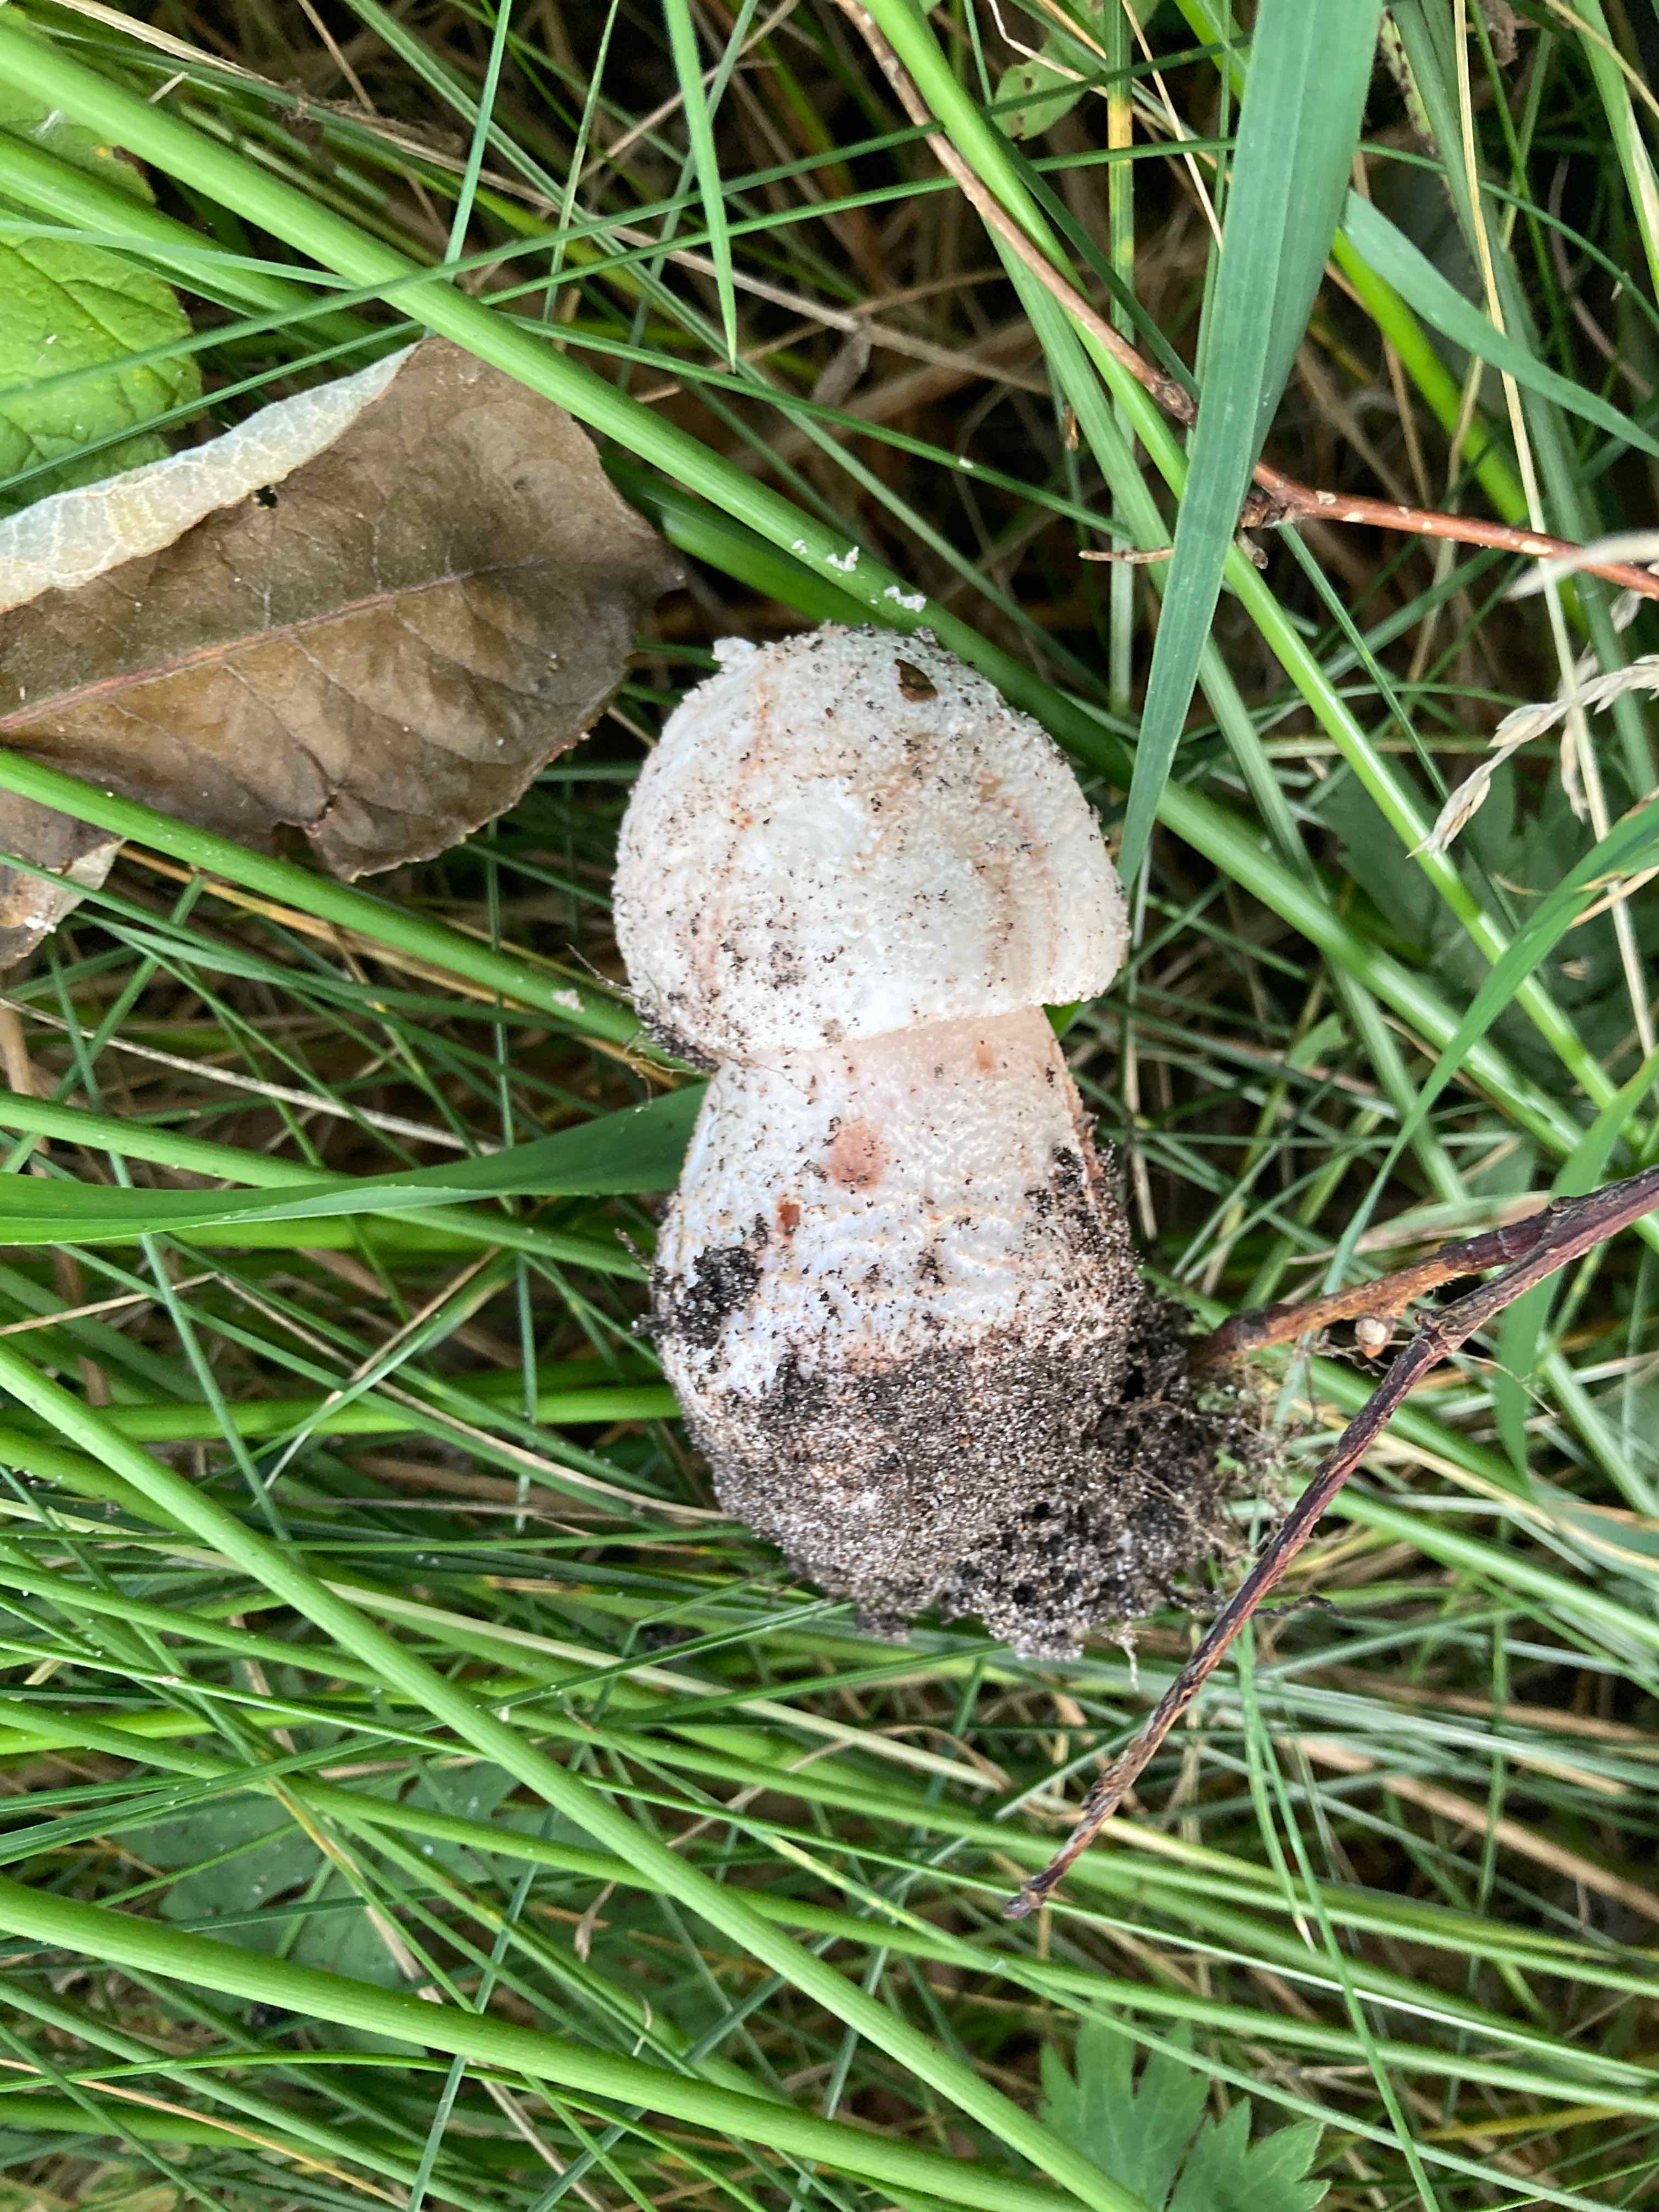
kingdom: Fungi
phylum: Basidiomycota
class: Agaricomycetes
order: Agaricales
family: Amanitaceae
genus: Amanita
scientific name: Amanita rubescens
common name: rødmende fluesvamp
